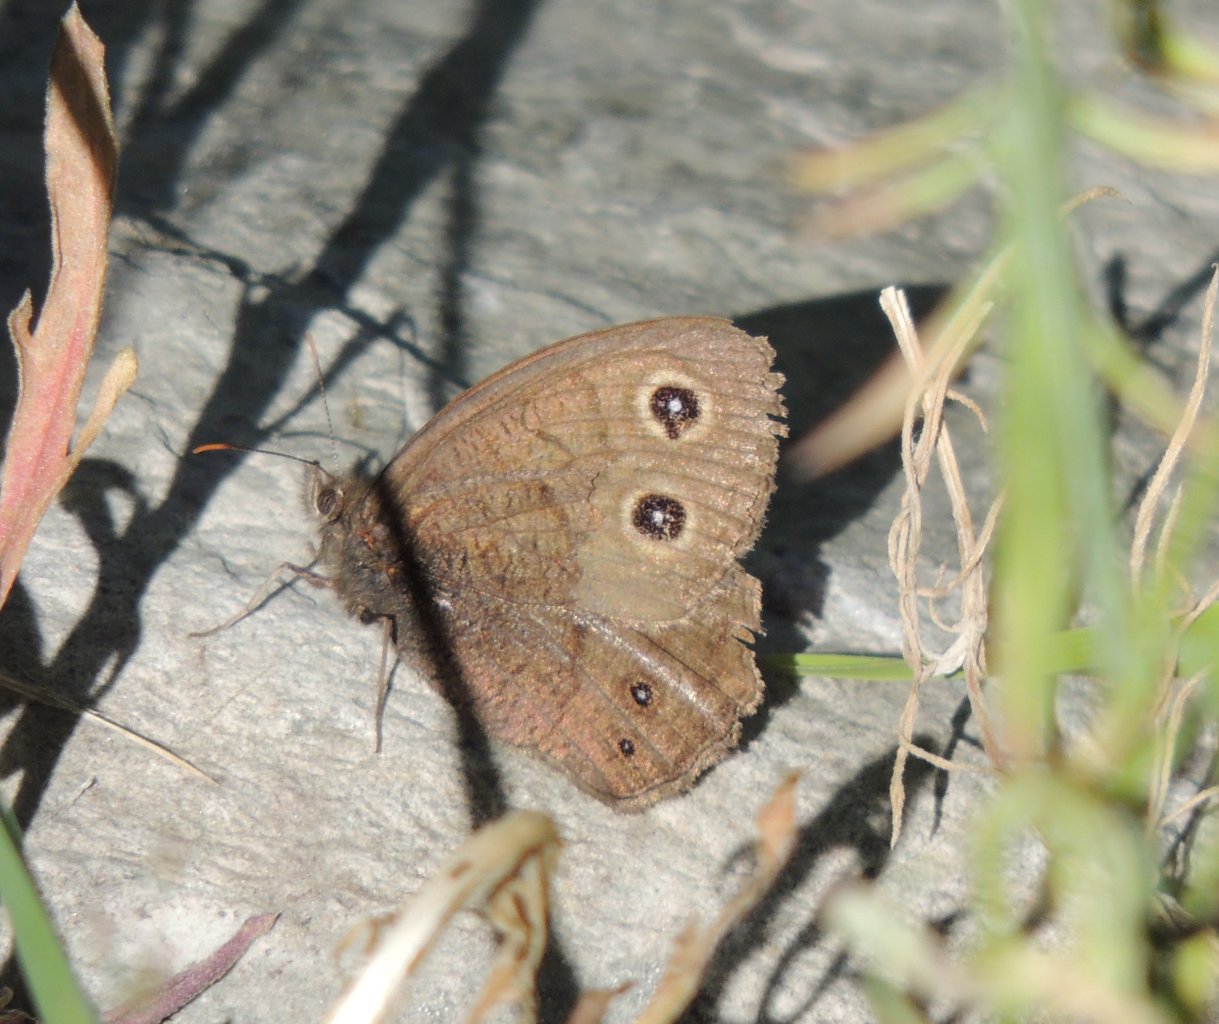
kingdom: Animalia
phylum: Arthropoda
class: Insecta
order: Lepidoptera
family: Nymphalidae
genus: Cercyonis
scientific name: Cercyonis pegala
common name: Common Wood-Nymph
